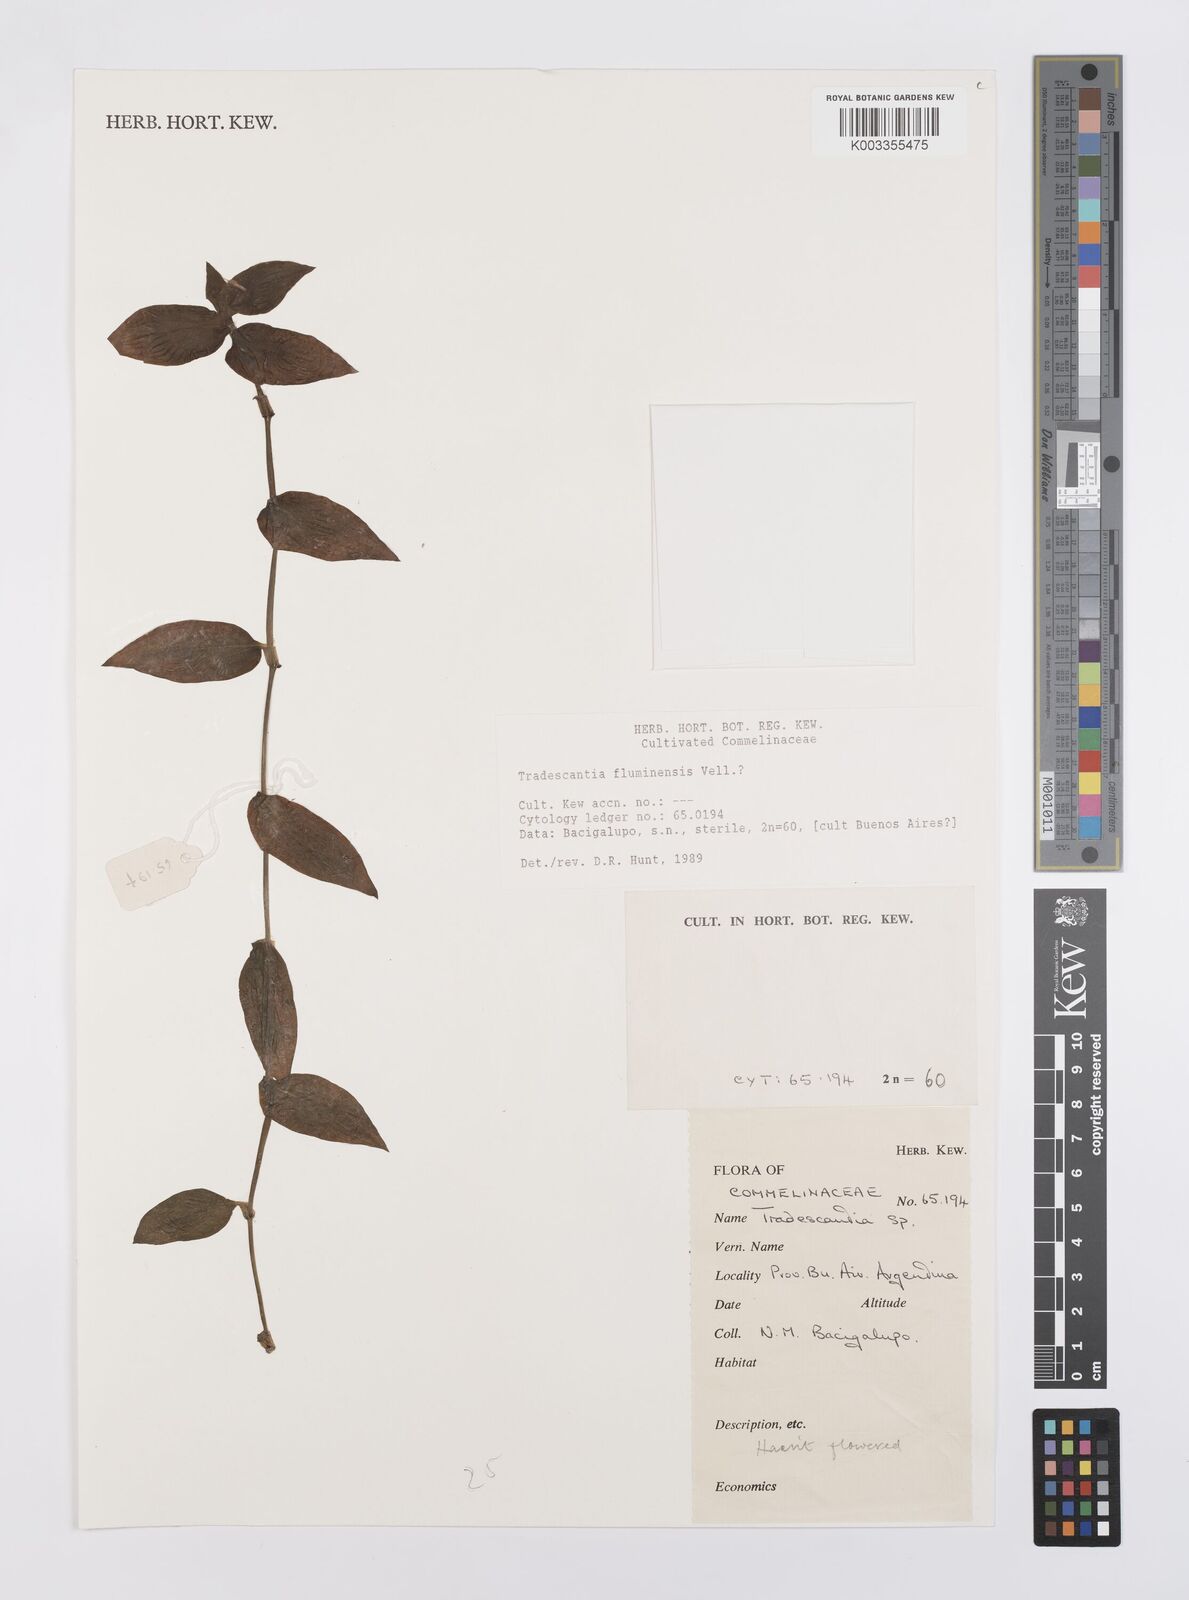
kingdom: Plantae
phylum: Tracheophyta
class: Liliopsida
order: Commelinales
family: Commelinaceae
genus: Tradescantia
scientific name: Tradescantia fluminensis
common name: Wandering-jew
